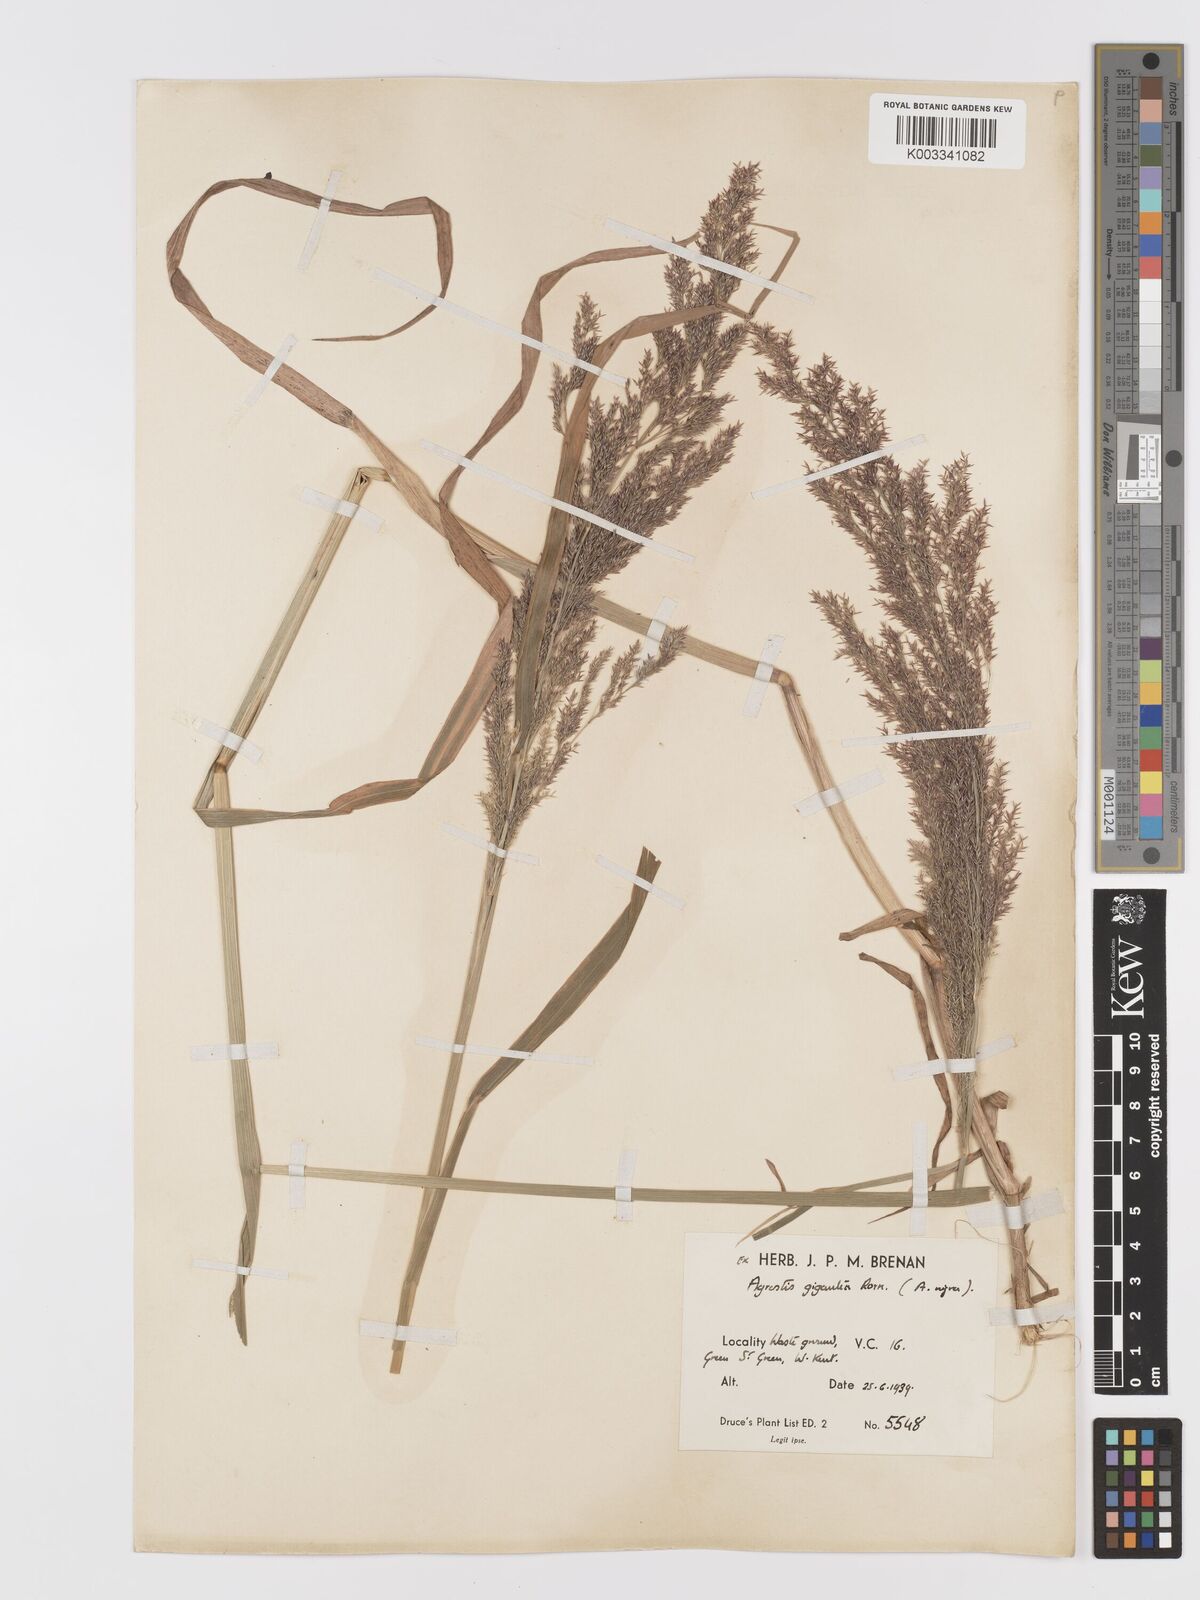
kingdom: Plantae
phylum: Tracheophyta
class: Liliopsida
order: Poales
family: Poaceae
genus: Agrostis
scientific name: Agrostis gigantea
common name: Black bent
